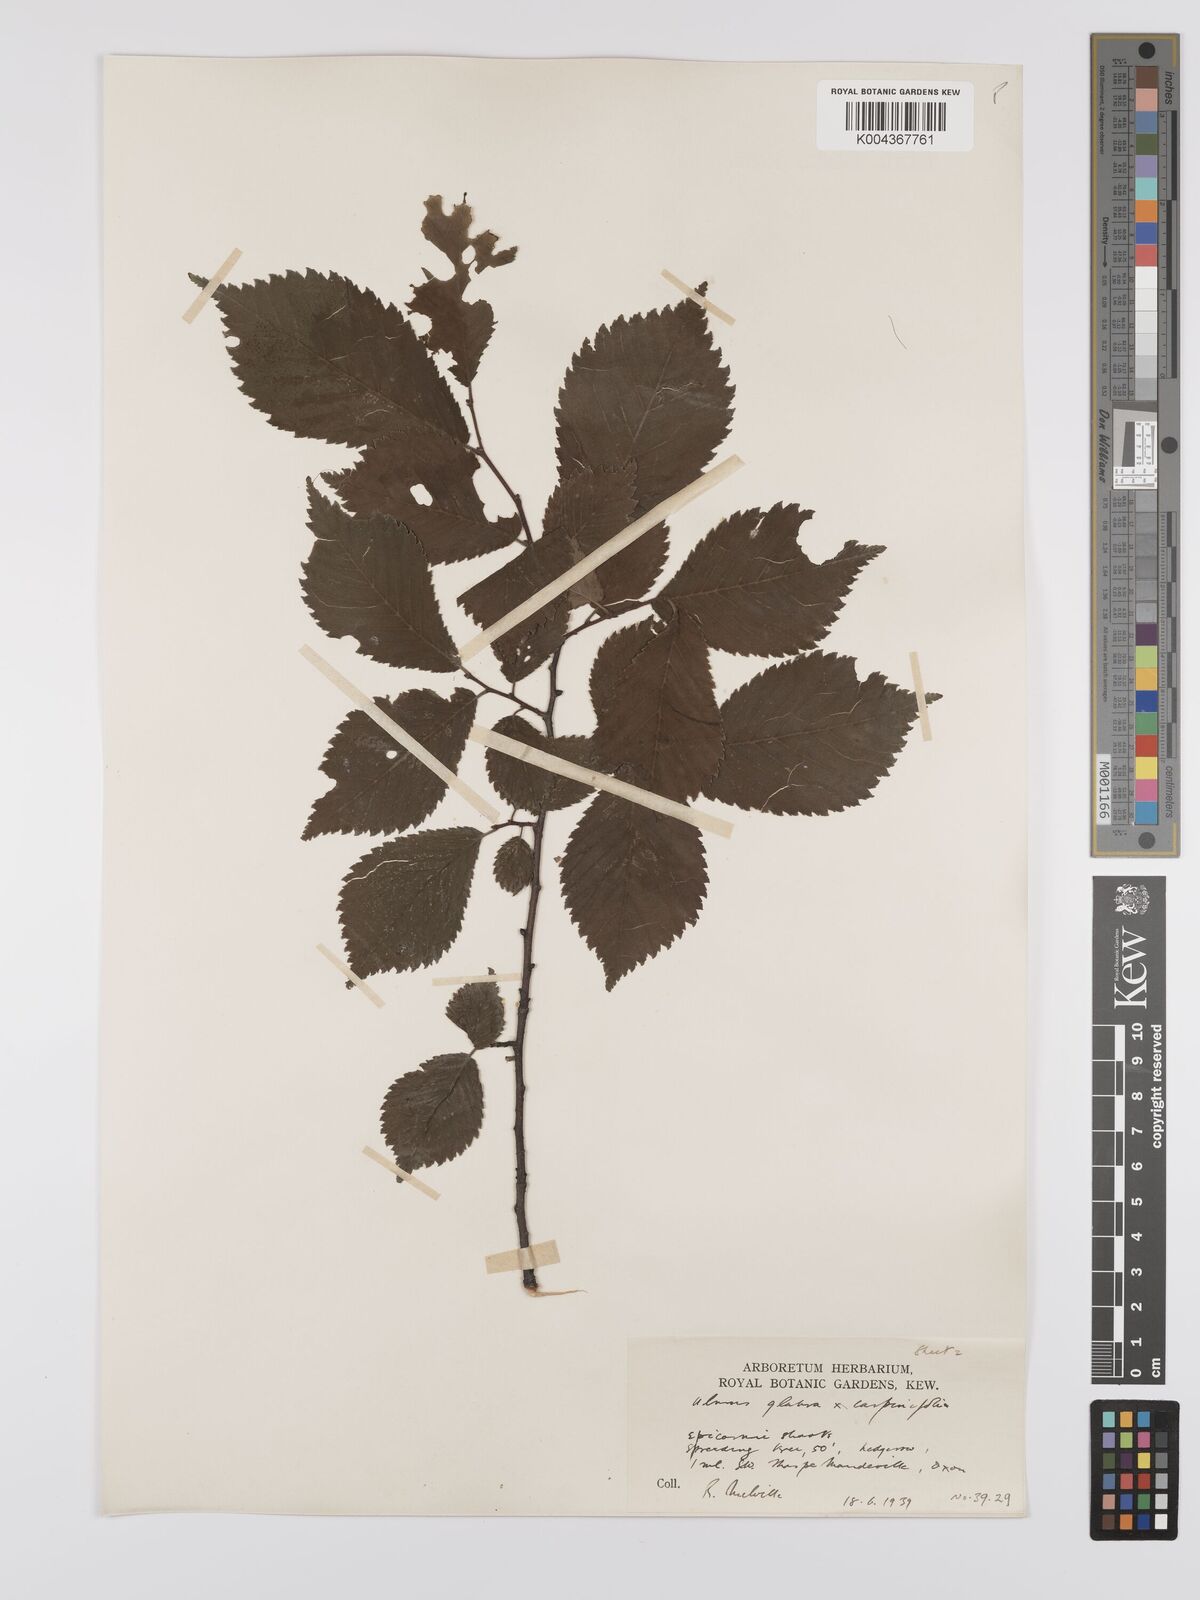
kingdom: Plantae
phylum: Tracheophyta
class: Magnoliopsida
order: Rosales
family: Ulmaceae
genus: Ulmus
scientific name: Ulmus
